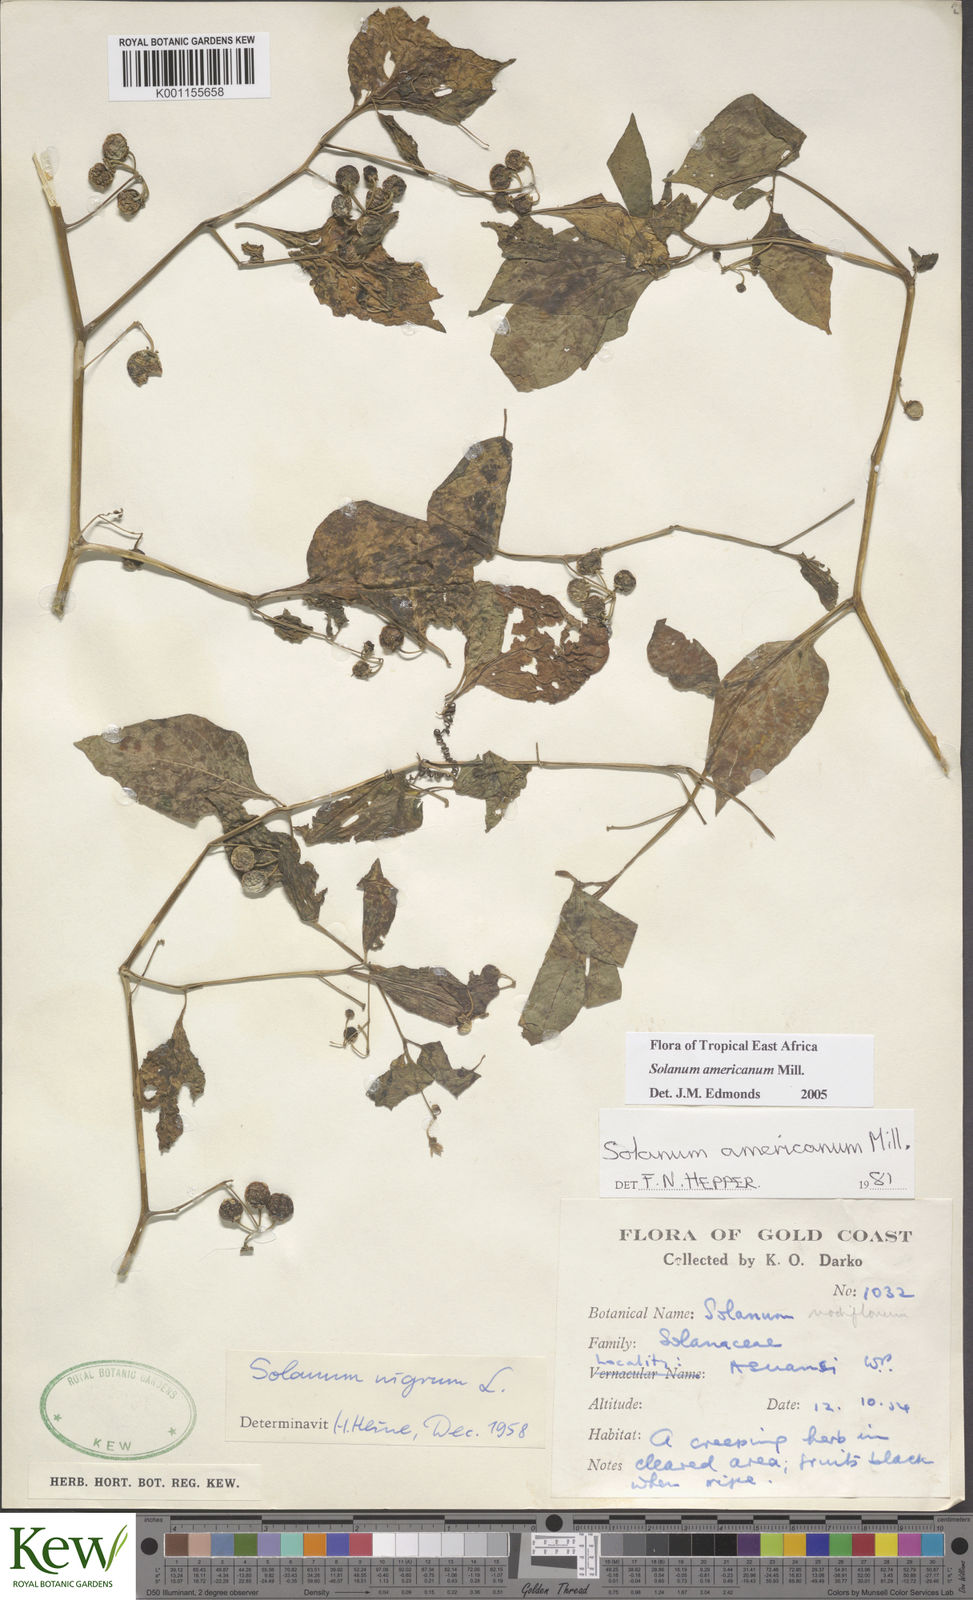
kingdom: Plantae
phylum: Tracheophyta
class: Magnoliopsida
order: Solanales
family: Solanaceae
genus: Solanum
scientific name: Solanum scabrum
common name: Garden-huckleberry
